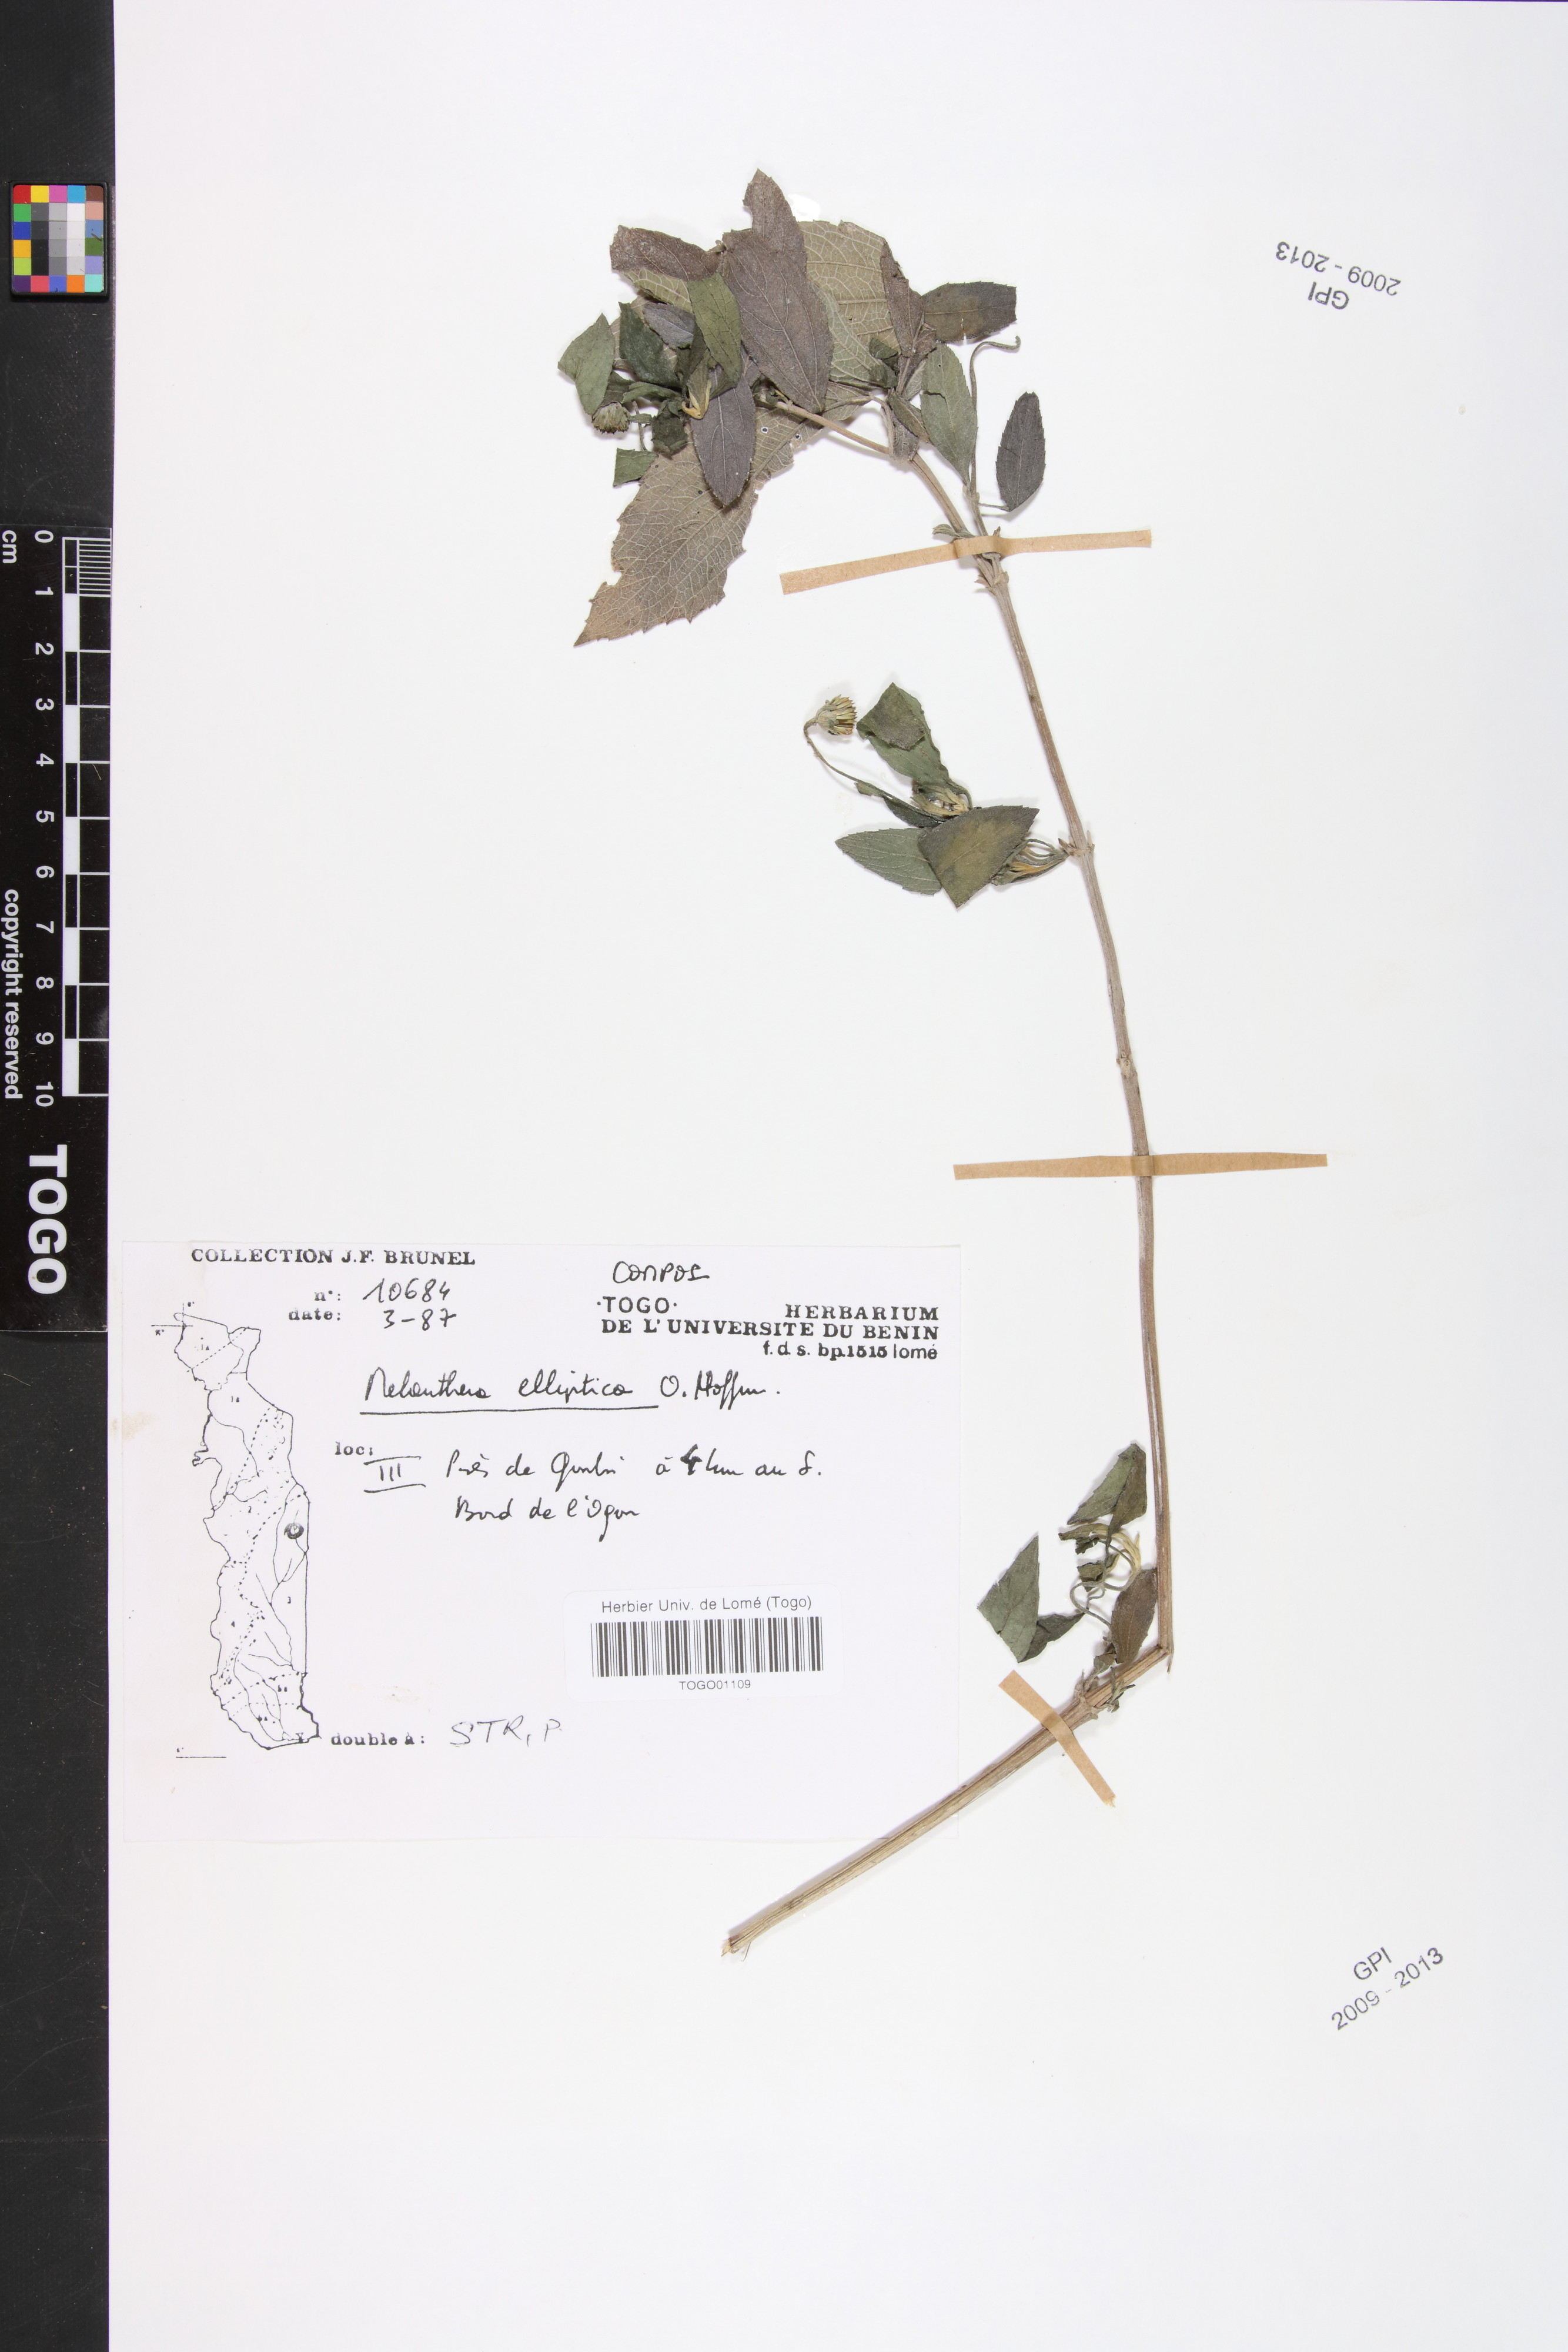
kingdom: Plantae
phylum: Tracheophyta
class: Magnoliopsida
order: Asterales
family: Asteraceae
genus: Lipotriche
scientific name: Lipotriche elliptica
